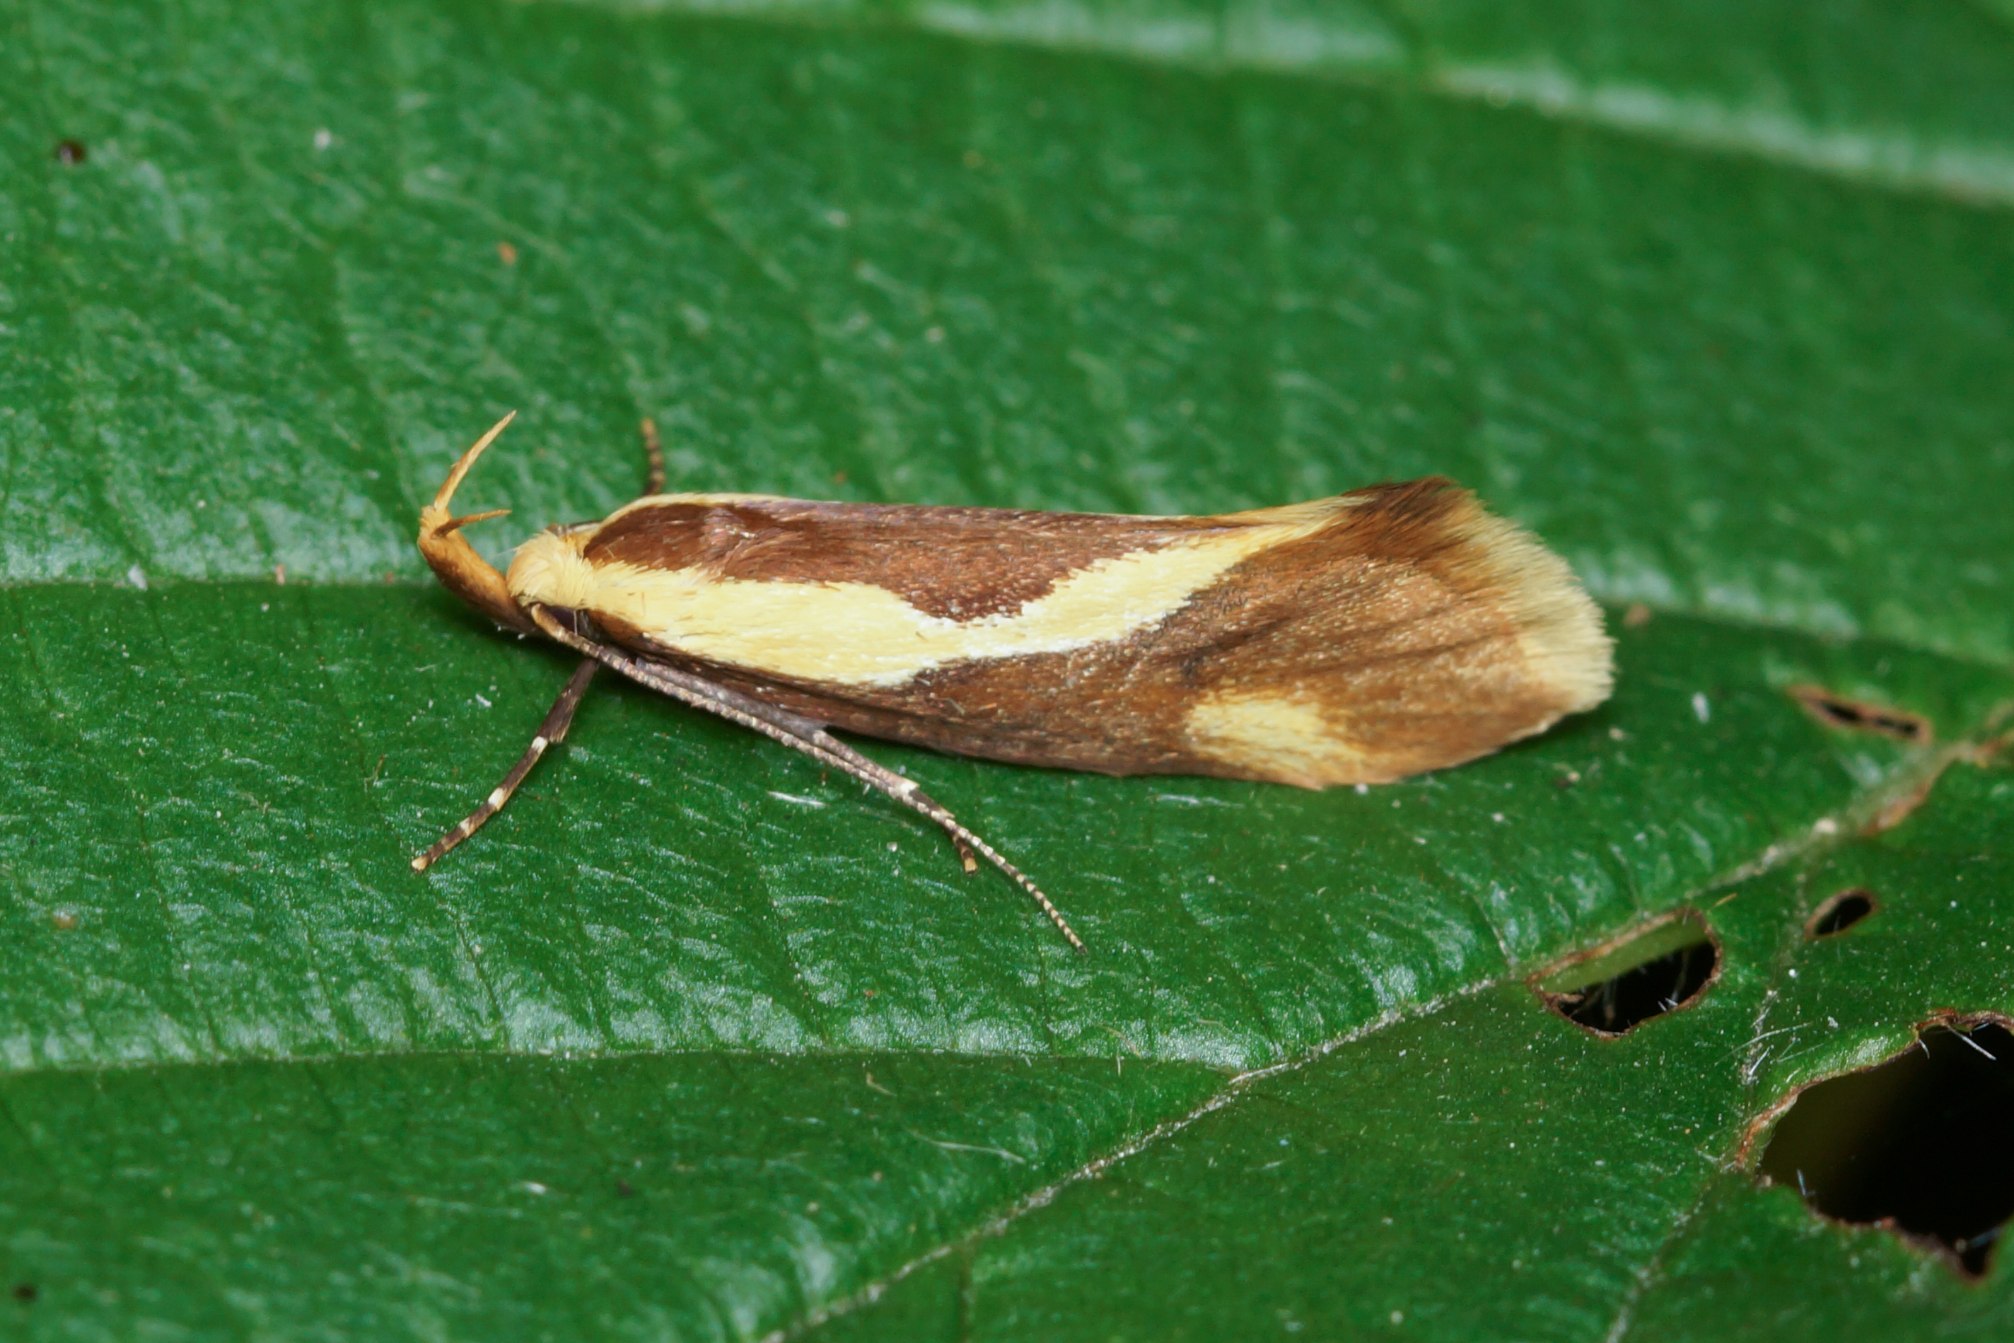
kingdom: Animalia
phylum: Arthropoda
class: Insecta
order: Lepidoptera
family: Oecophoridae
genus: Harpella
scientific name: Harpella forficella
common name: Kæmpeprydvinge
